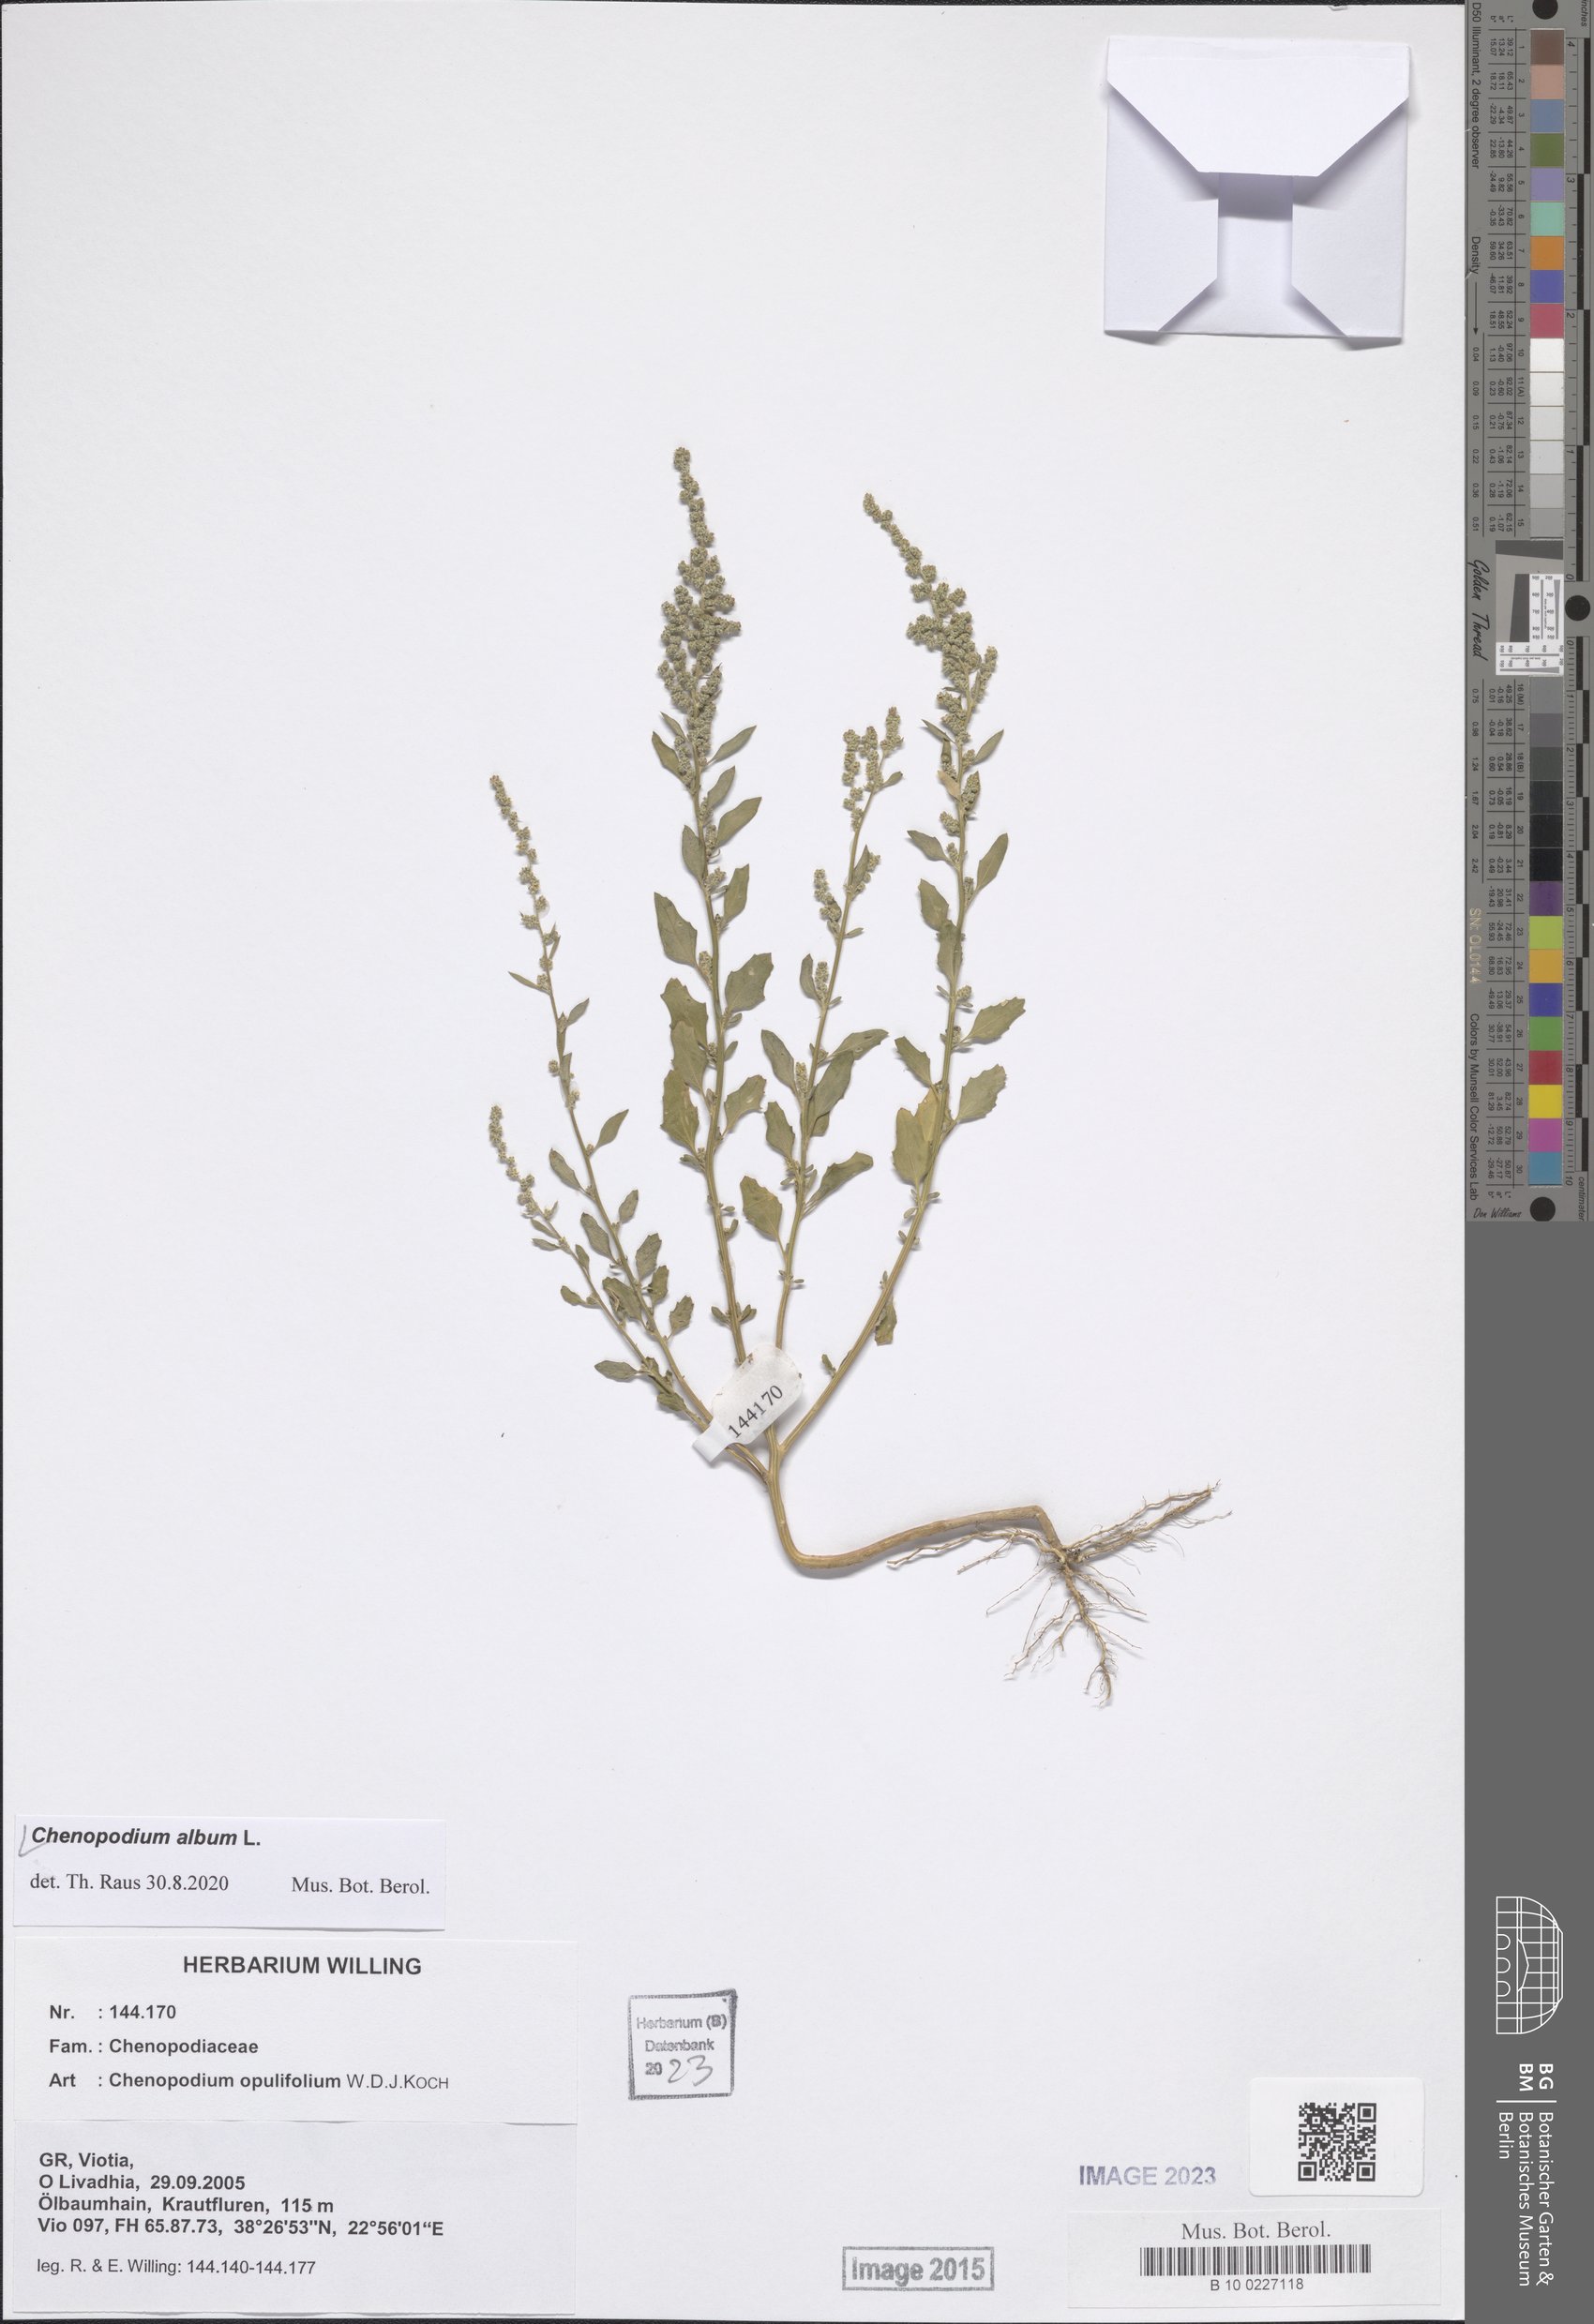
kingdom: Plantae
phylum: Tracheophyta
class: Magnoliopsida
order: Caryophyllales
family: Amaranthaceae
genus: Chenopodium
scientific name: Chenopodium album
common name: Fat-hen
